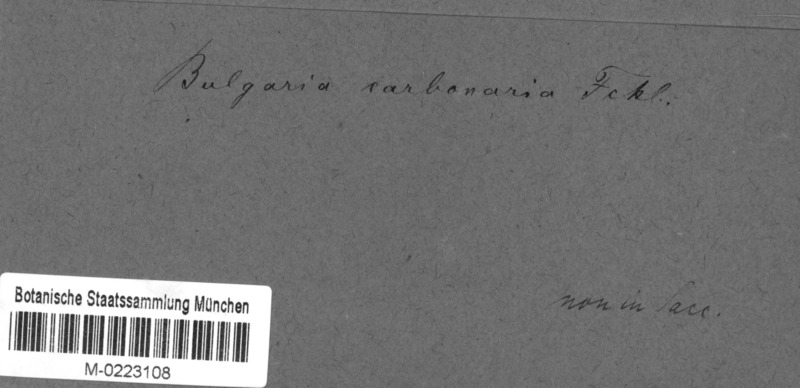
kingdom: Fungi
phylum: Ascomycota
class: Pezizomycetes
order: Pezizales
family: Pyronemataceae
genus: Plicaria
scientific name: Plicaria carbonaria
